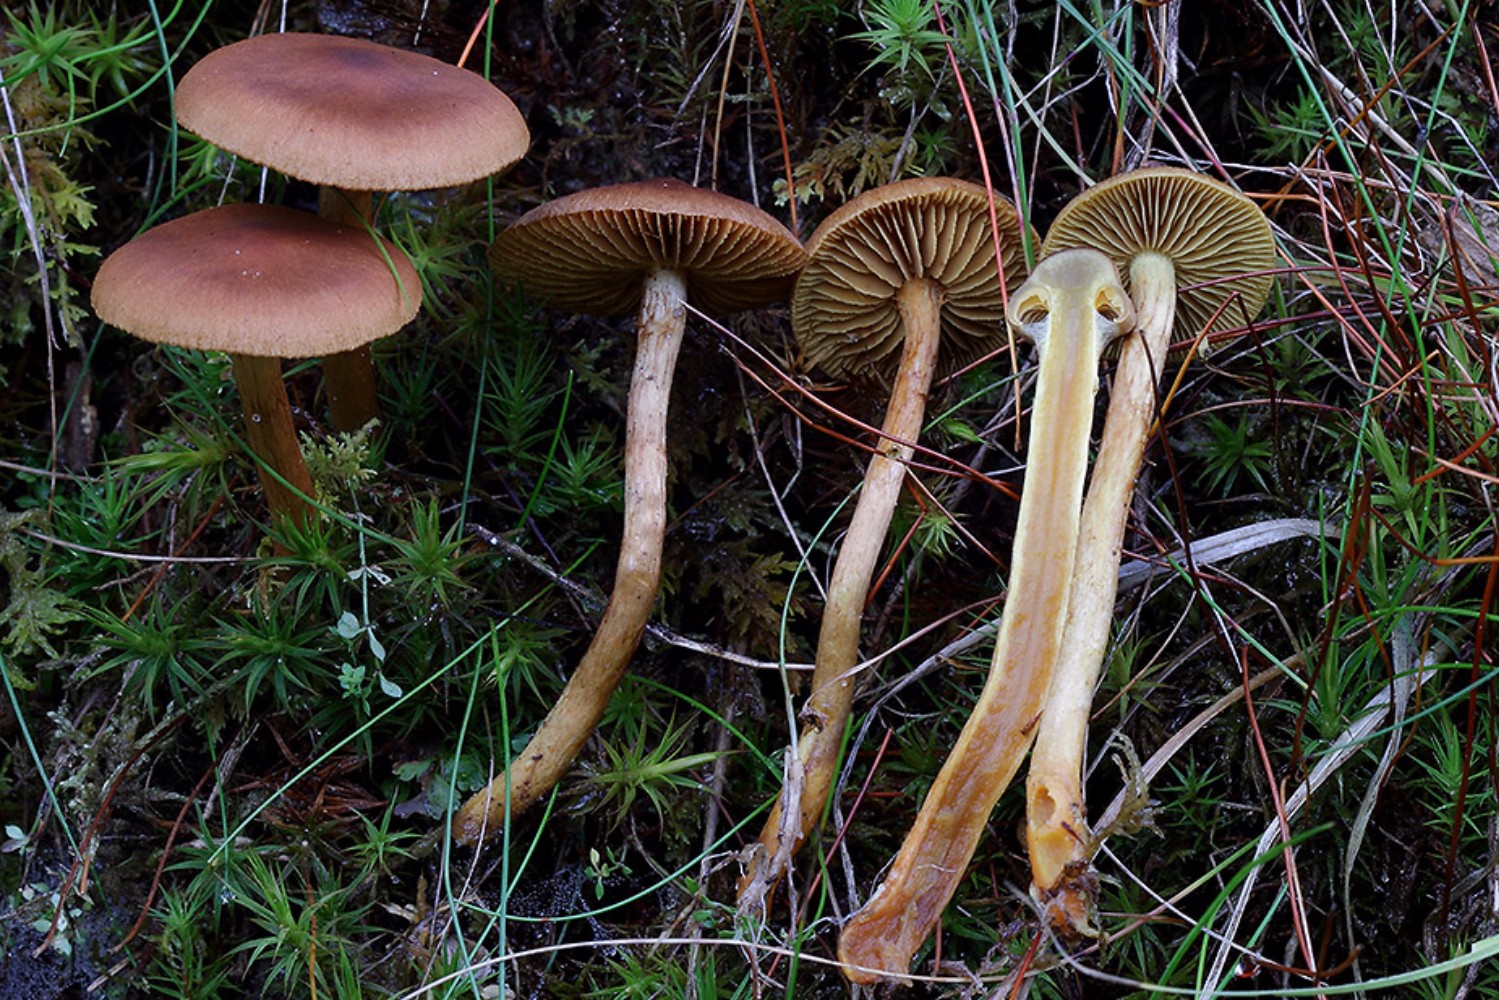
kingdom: Fungi
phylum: Basidiomycota
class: Agaricomycetes
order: Agaricales
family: Cortinariaceae
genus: Cortinarius
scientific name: Cortinarius
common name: gulbladet slørhat
